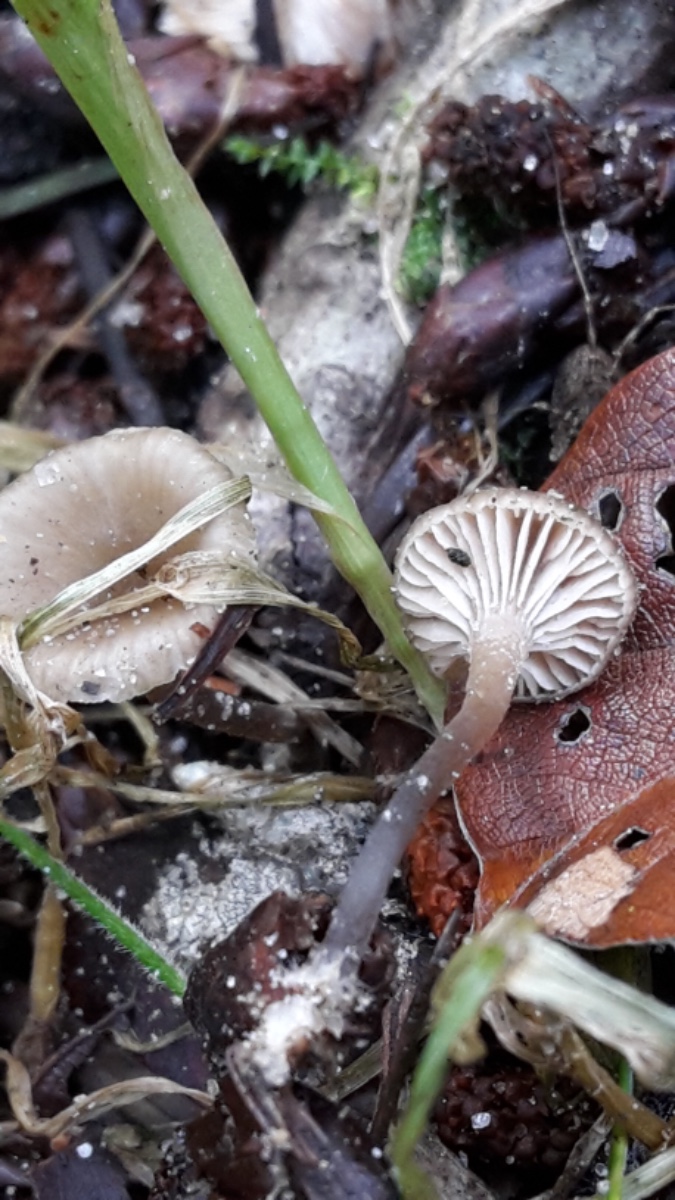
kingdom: Fungi
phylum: Basidiomycota
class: Agaricomycetes
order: Agaricales
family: Tricholomataceae
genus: Gamundia
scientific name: Gamundia striatula
